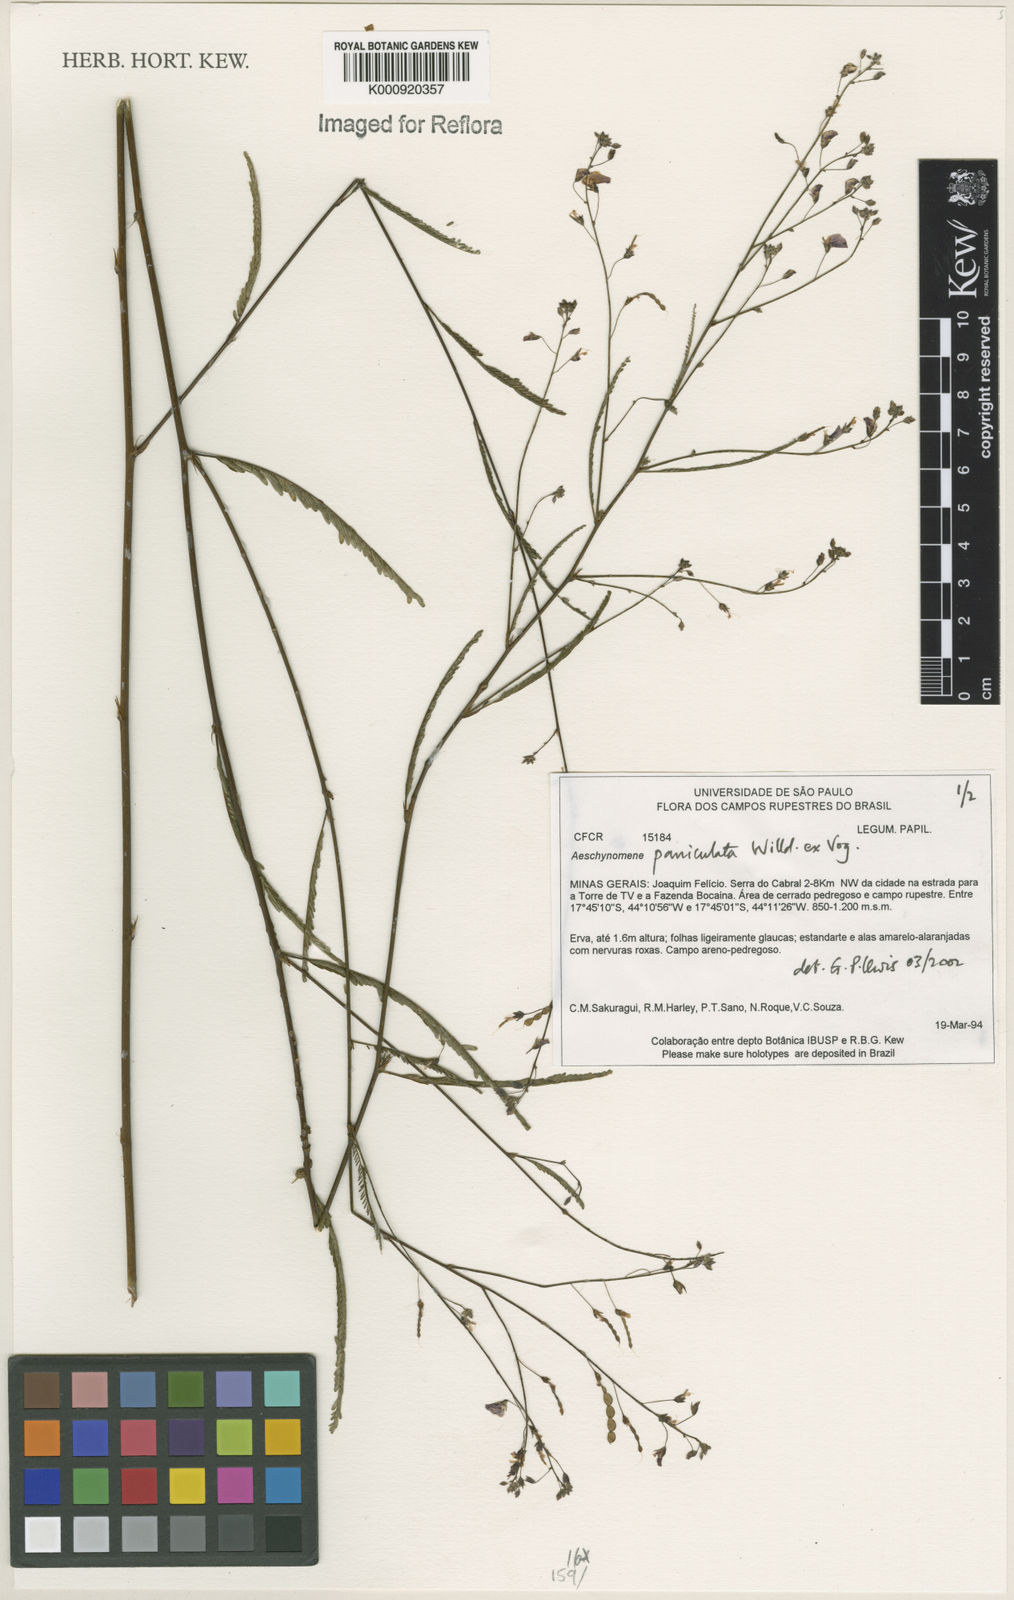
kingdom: Plantae
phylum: Tracheophyta
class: Magnoliopsida
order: Fabales
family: Fabaceae
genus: Ctenodon
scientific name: Ctenodon paniculatus
